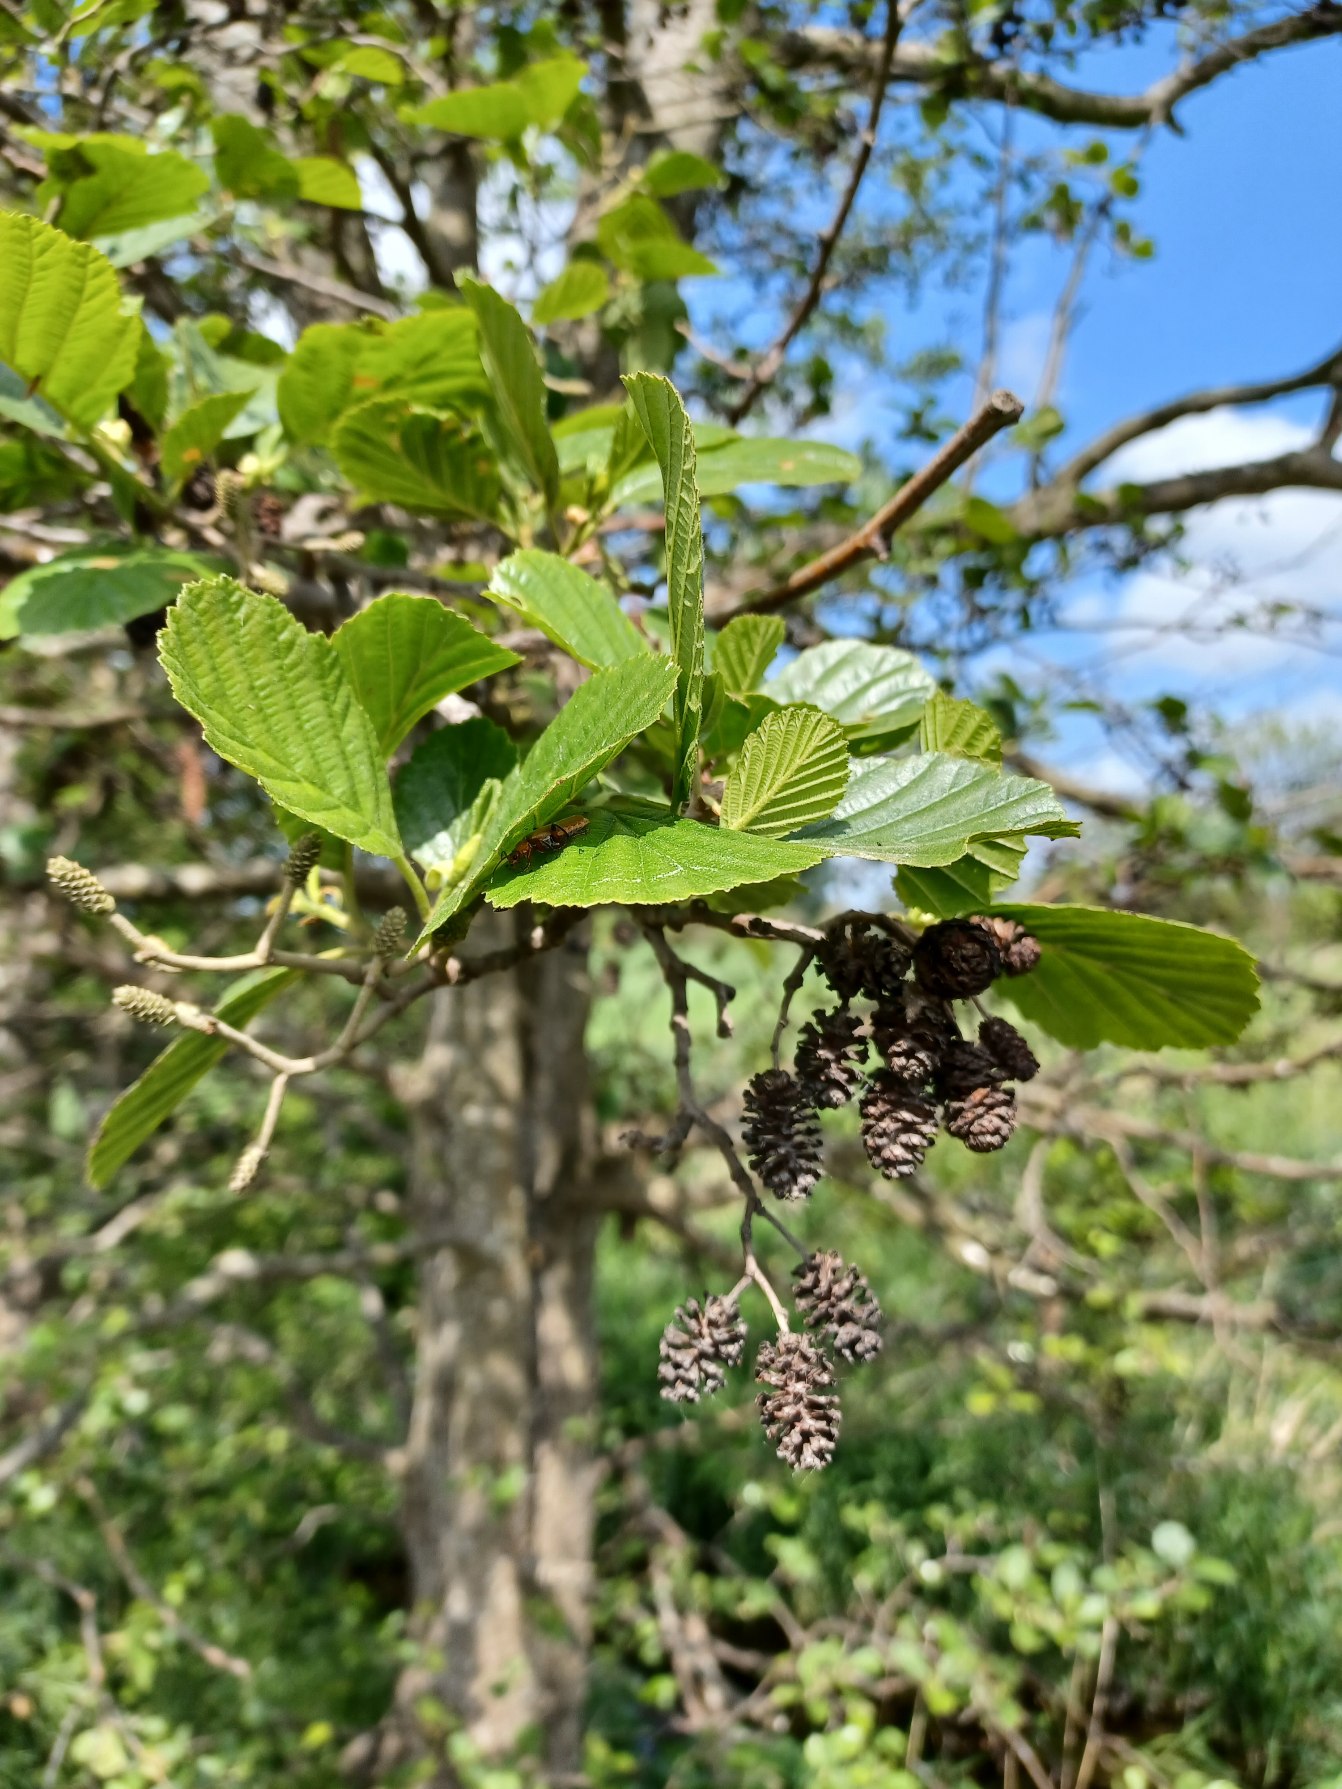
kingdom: Plantae
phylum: Tracheophyta
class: Magnoliopsida
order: Fagales
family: Betulaceae
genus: Alnus
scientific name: Alnus glutinosa
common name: Rød-el
